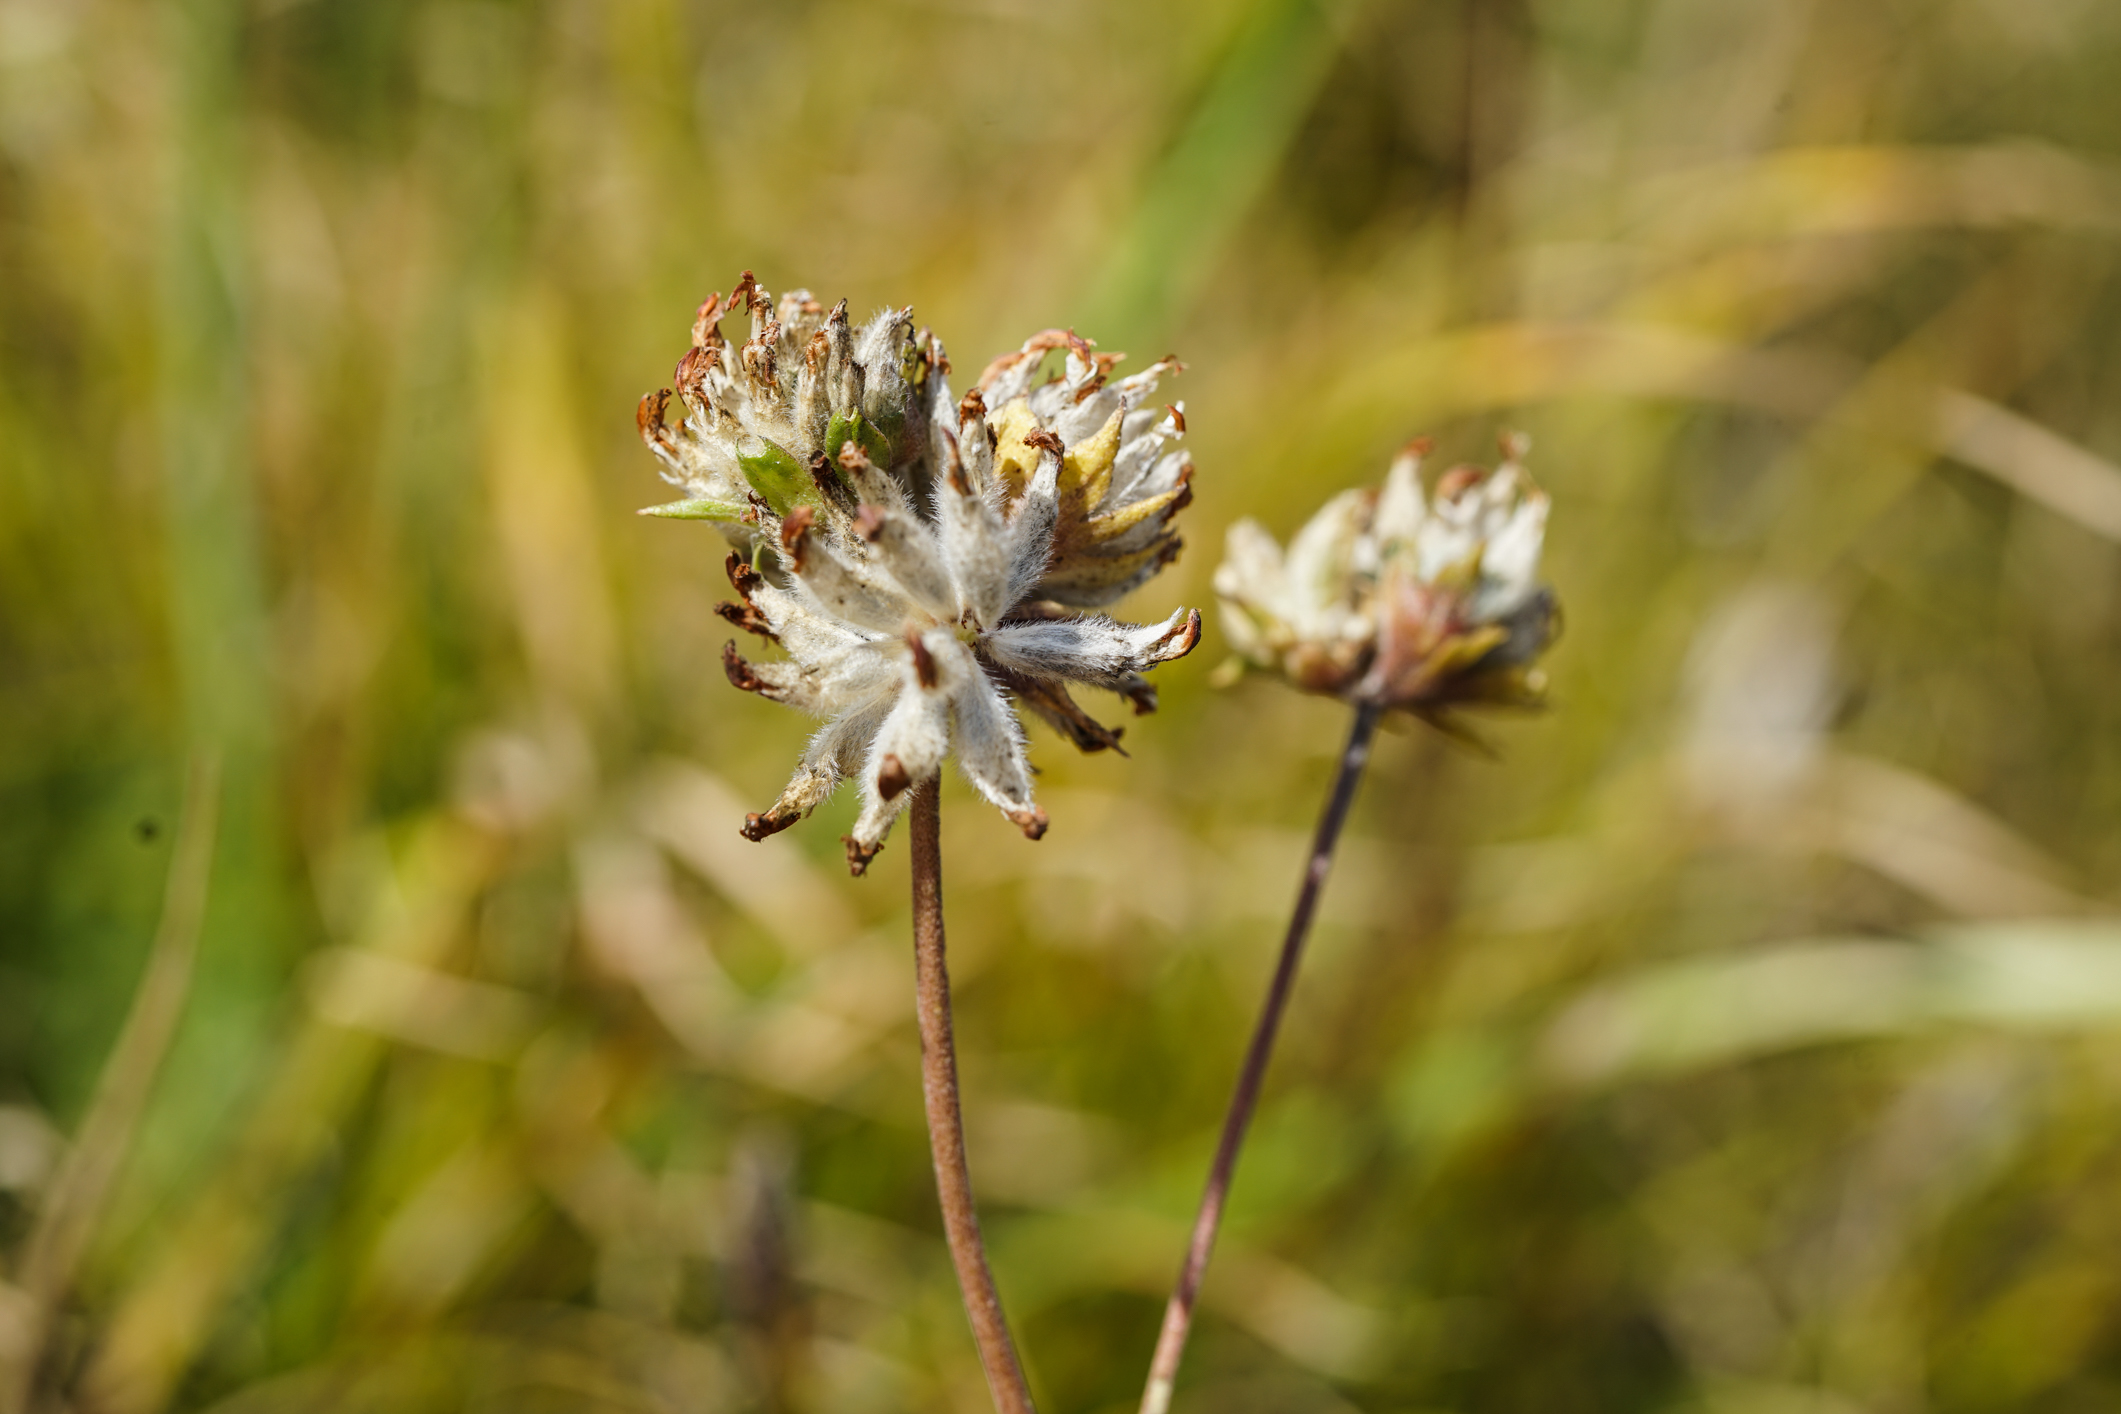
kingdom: Plantae
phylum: Tracheophyta
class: Magnoliopsida
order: Fabales
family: Fabaceae
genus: Anthyllis
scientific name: Anthyllis vulneraria
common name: Kidney vetch
